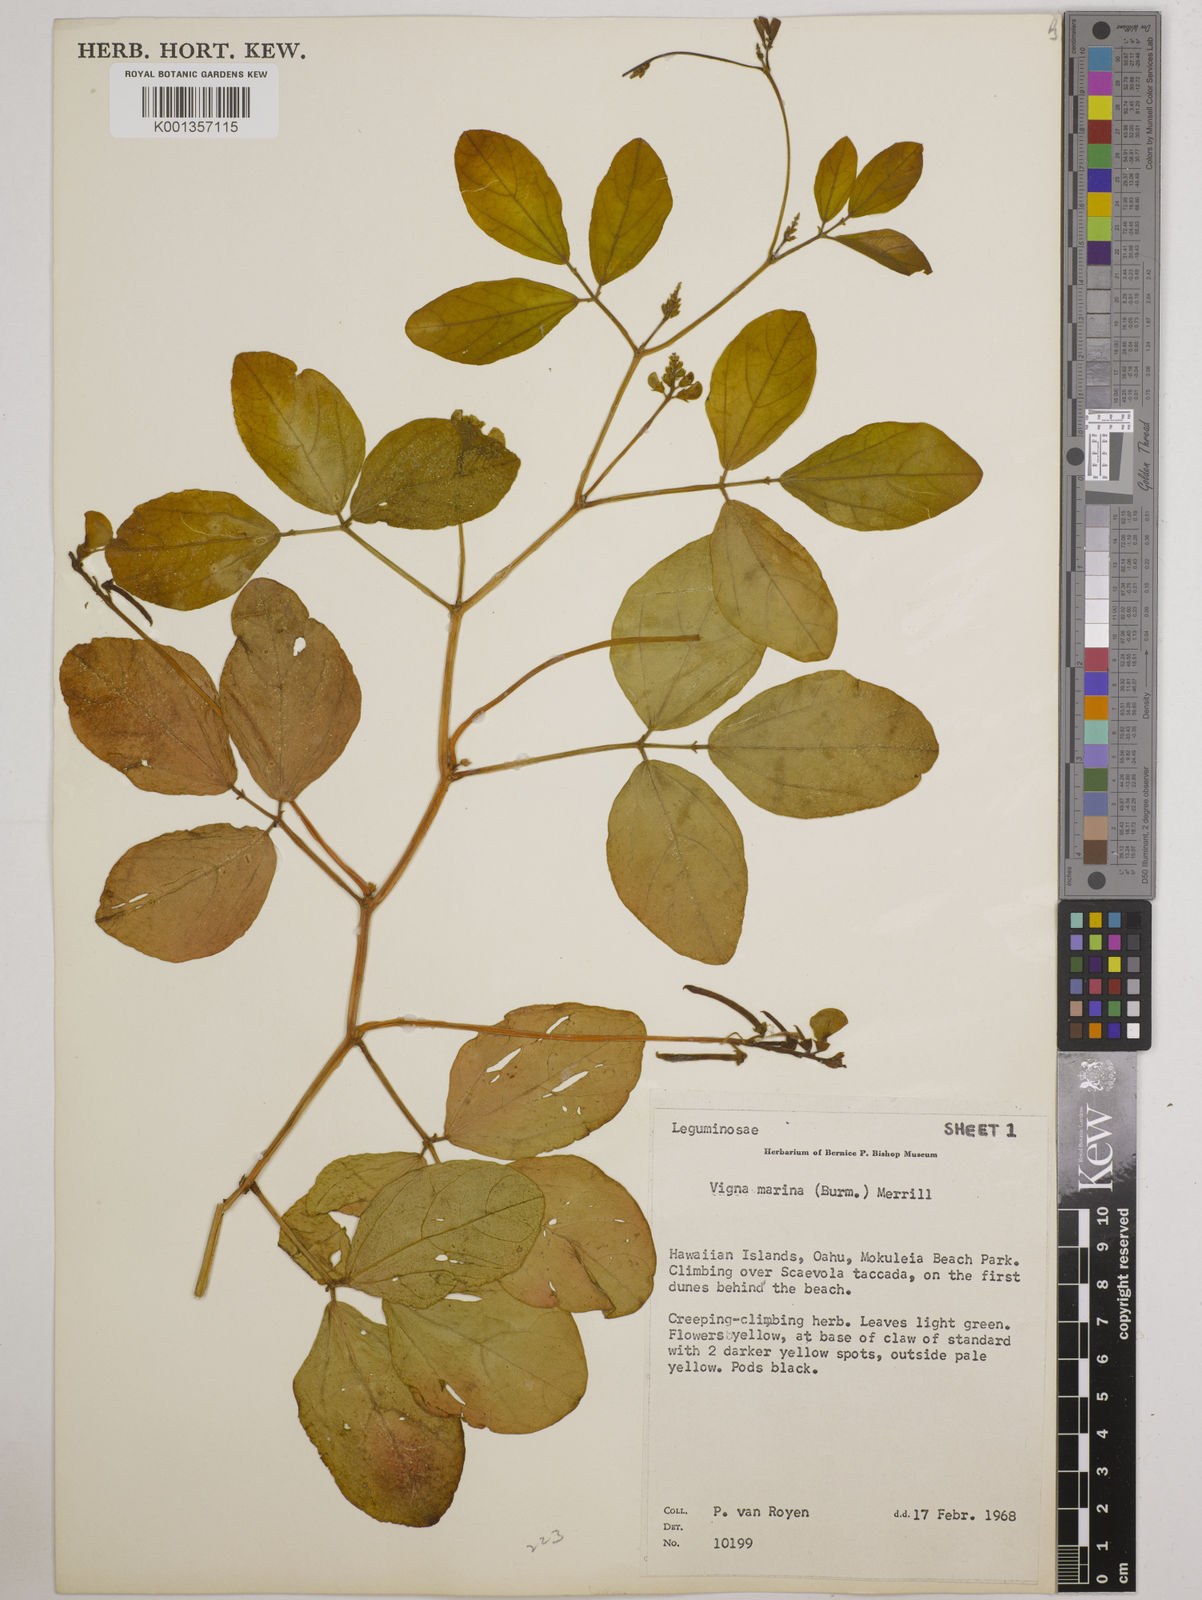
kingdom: Plantae
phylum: Tracheophyta
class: Magnoliopsida
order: Fabales
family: Fabaceae
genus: Vigna
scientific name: Vigna marina
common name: Dune-bean
